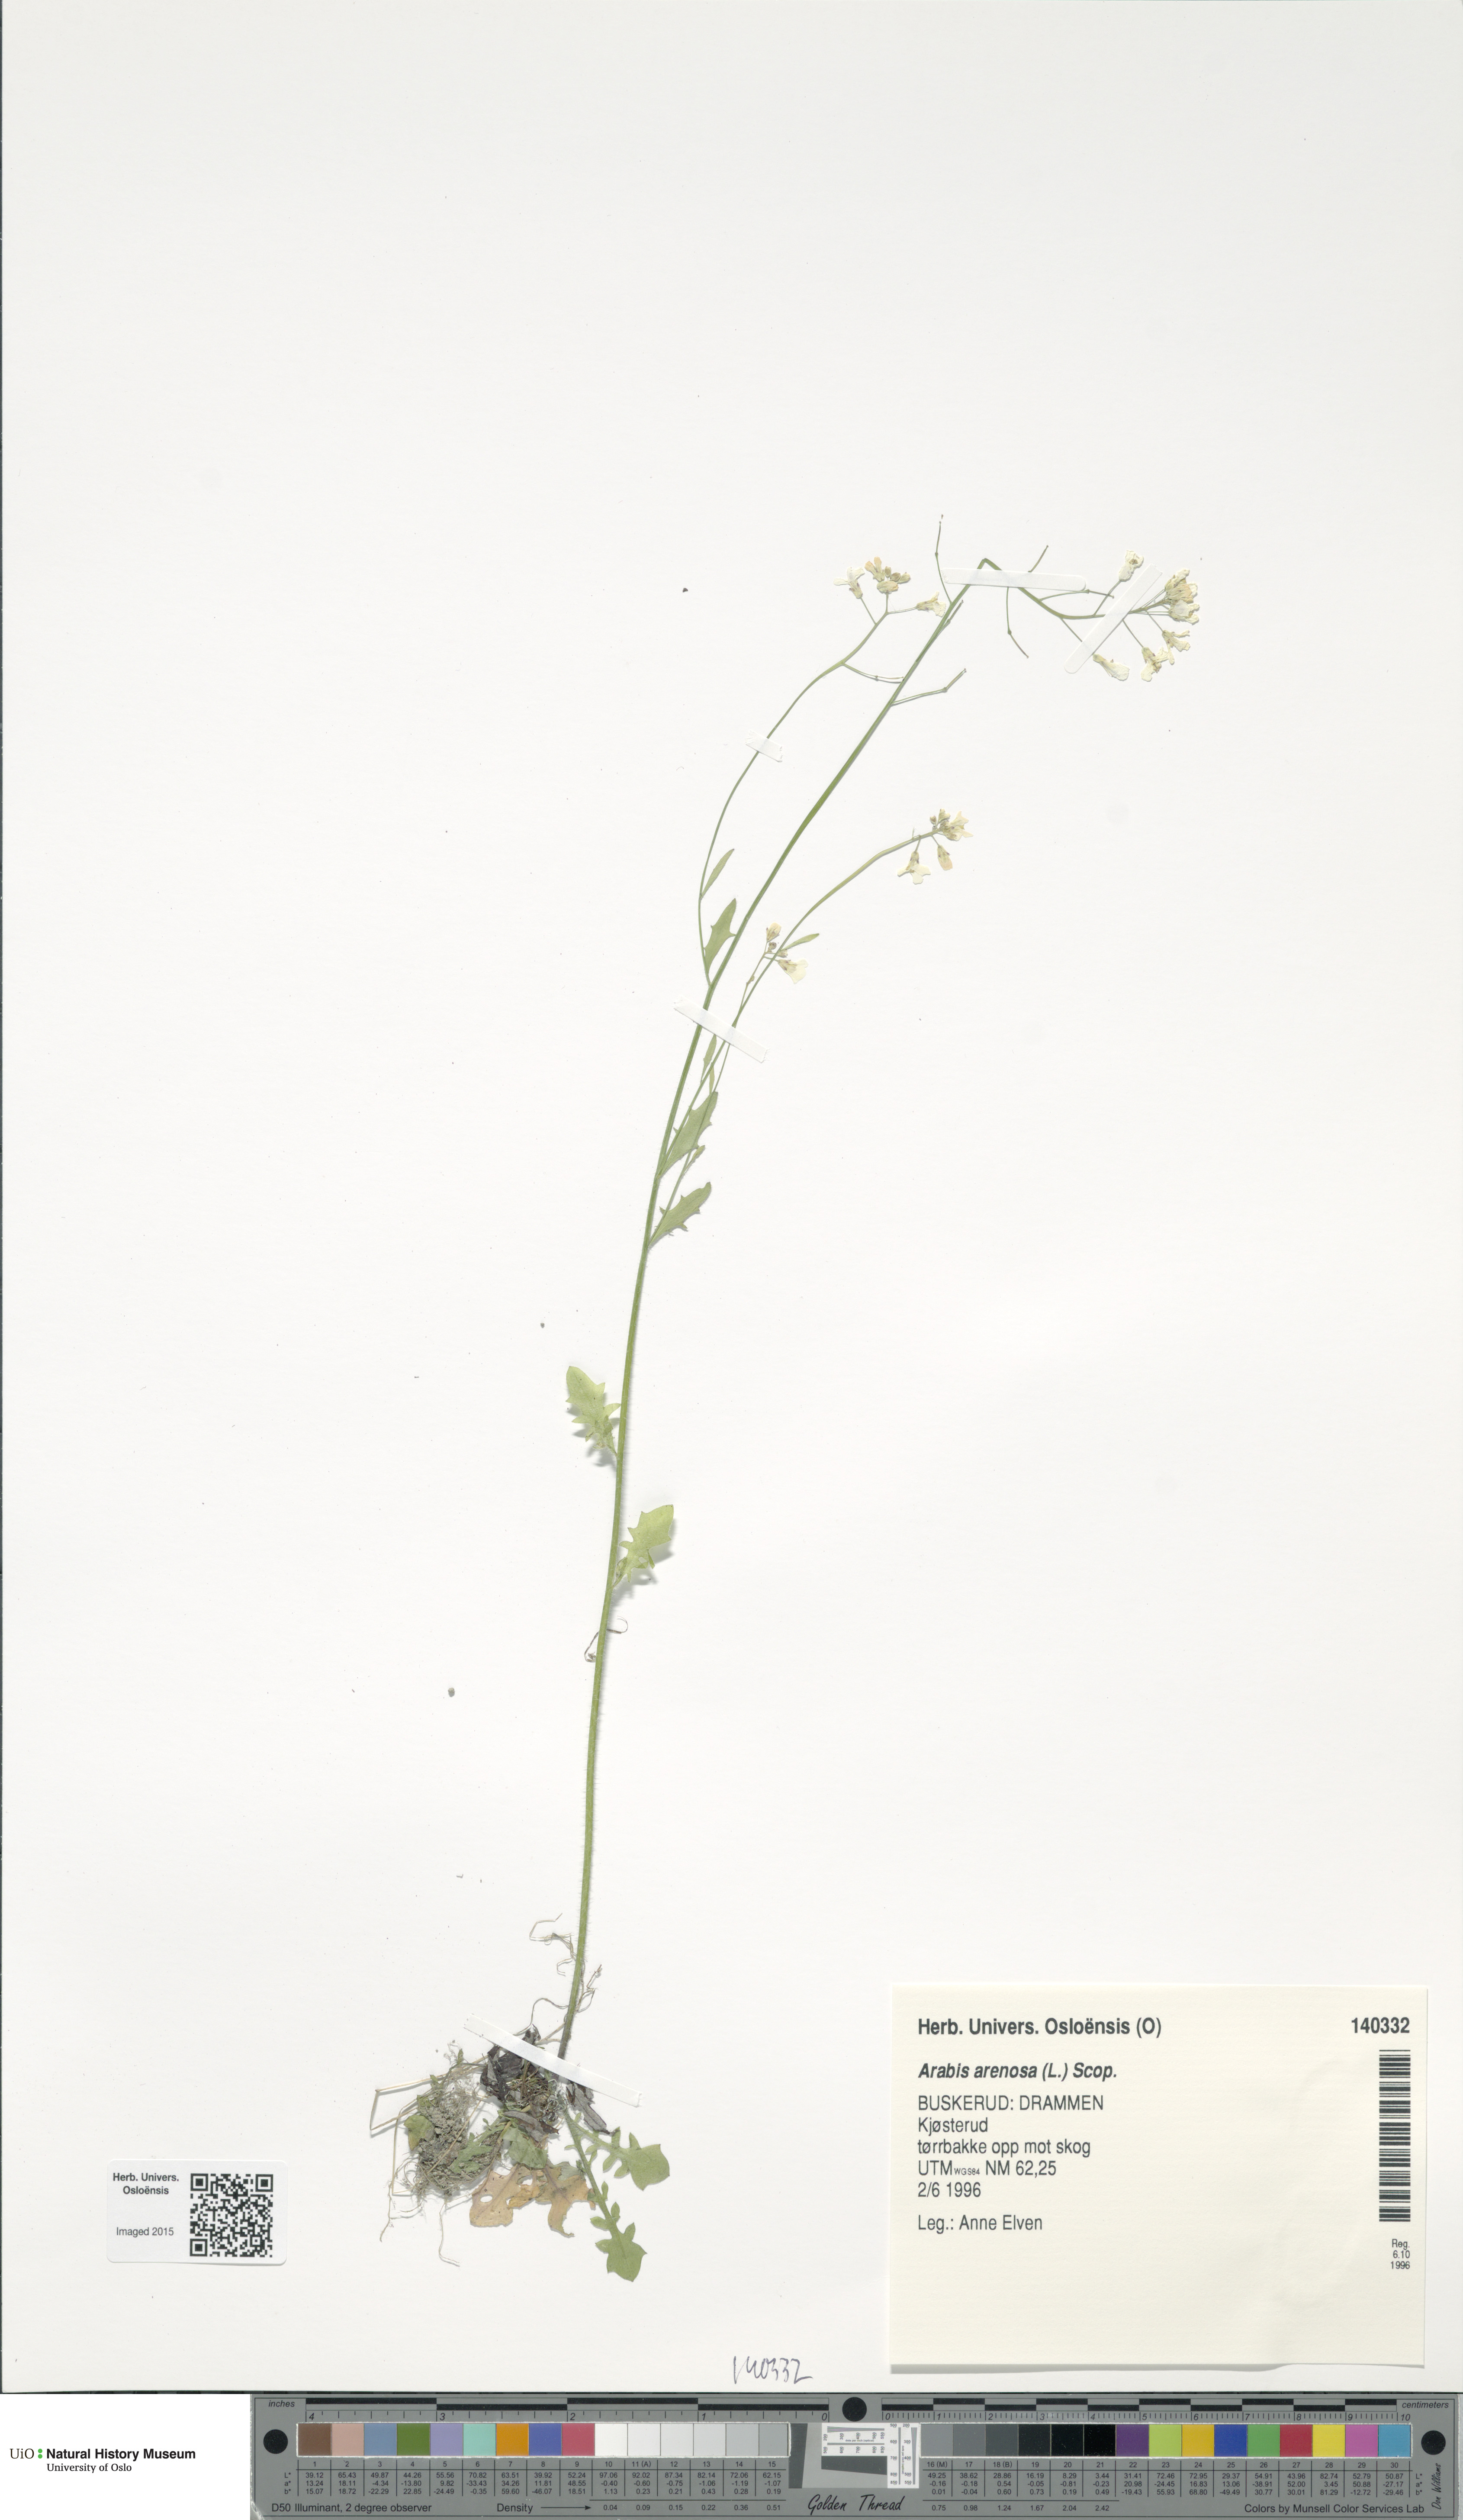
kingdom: Plantae
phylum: Tracheophyta
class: Magnoliopsida
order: Brassicales
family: Brassicaceae
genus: Arabidopsis
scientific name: Arabidopsis arenosa
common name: Sand rock-cress
